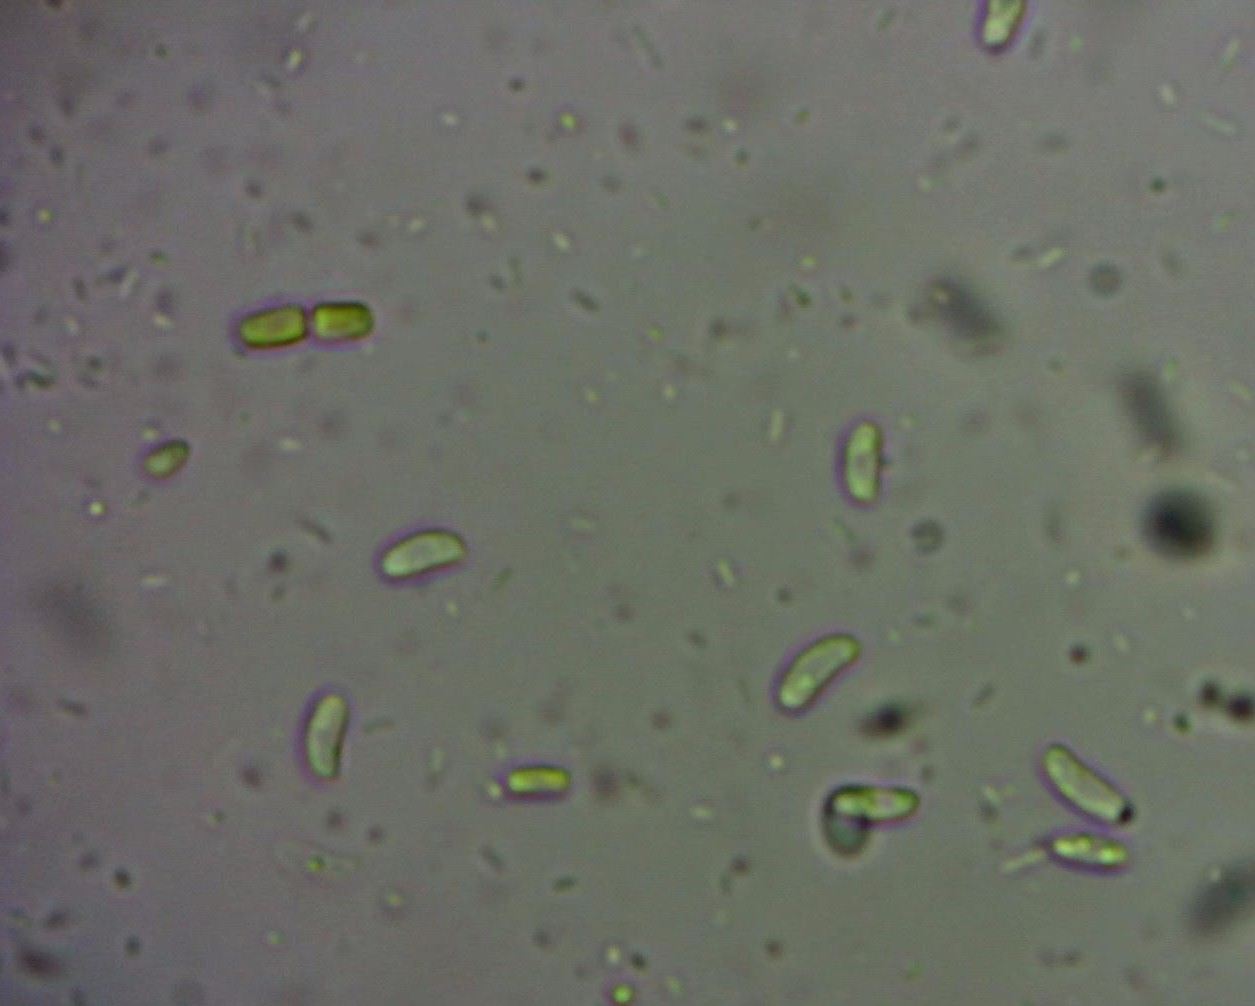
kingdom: Fungi
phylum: Basidiomycota
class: Agaricomycetes
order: Polyporales
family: Polyporaceae
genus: Lentinus
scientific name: Lentinus brumalis
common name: vinter-stilkporesvamp
